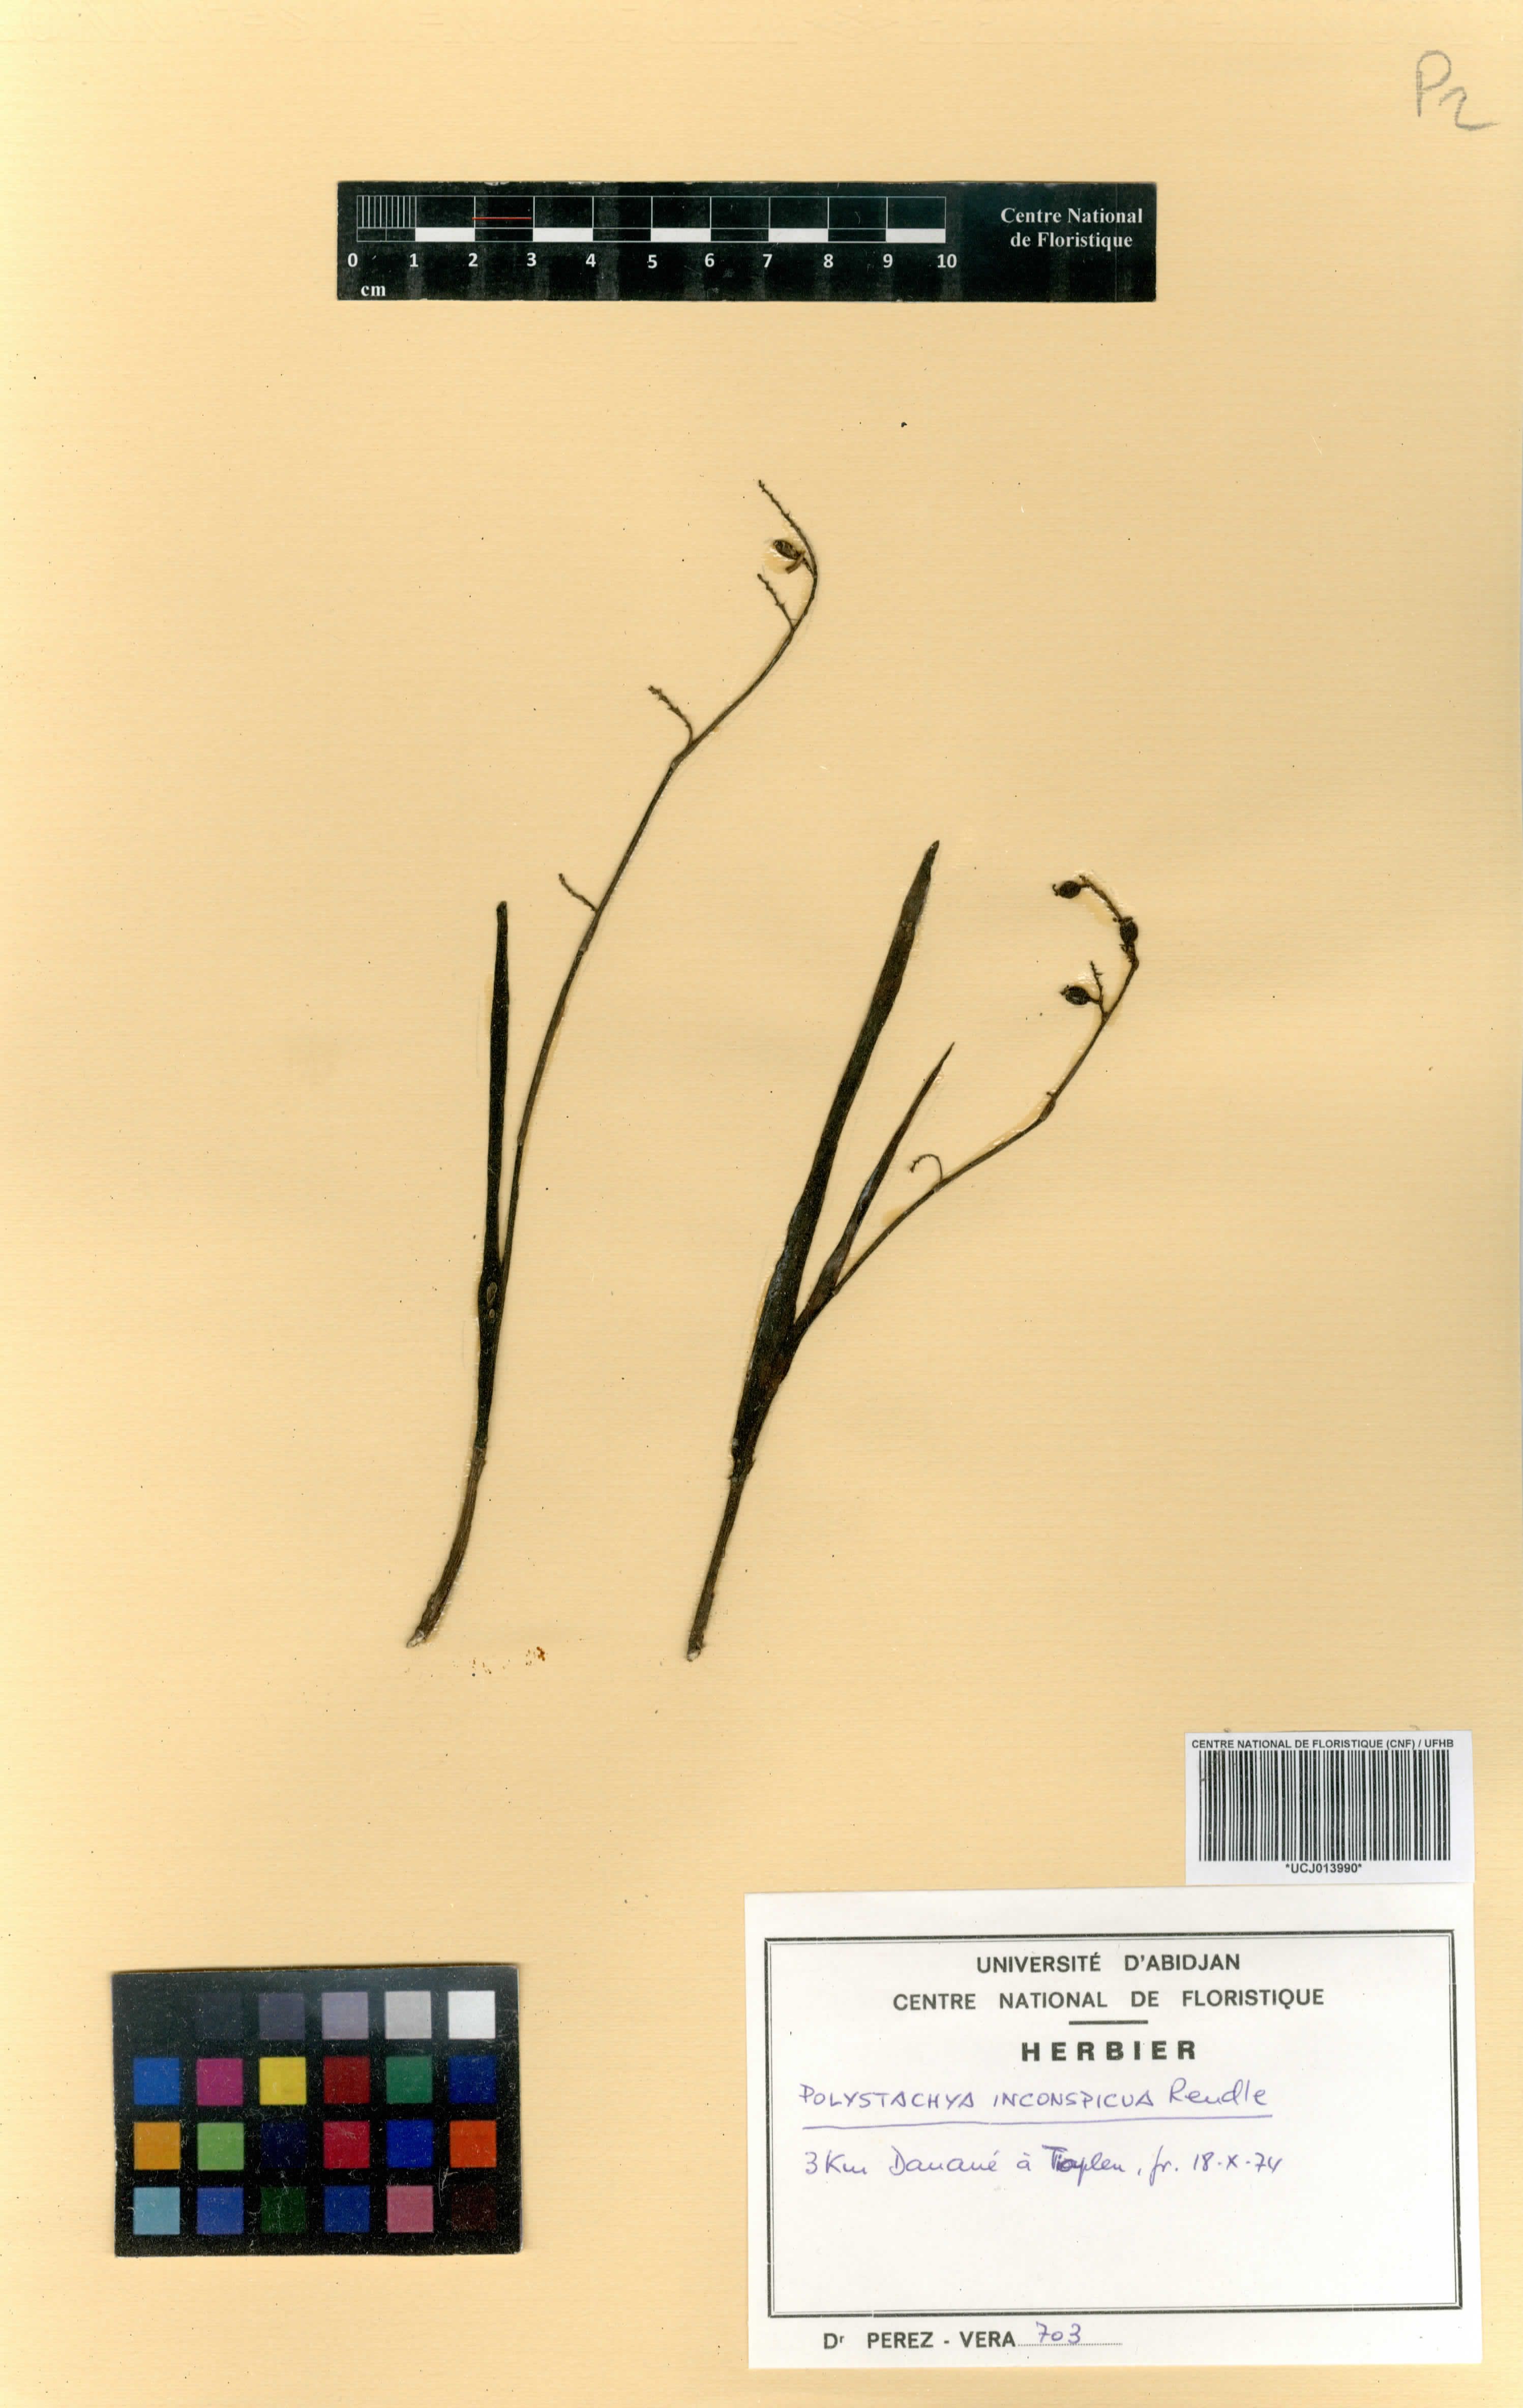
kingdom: Plantae
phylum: Tracheophyta
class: Liliopsida
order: Asparagales
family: Orchidaceae
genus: Polystachya
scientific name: Polystachya tenuissima
